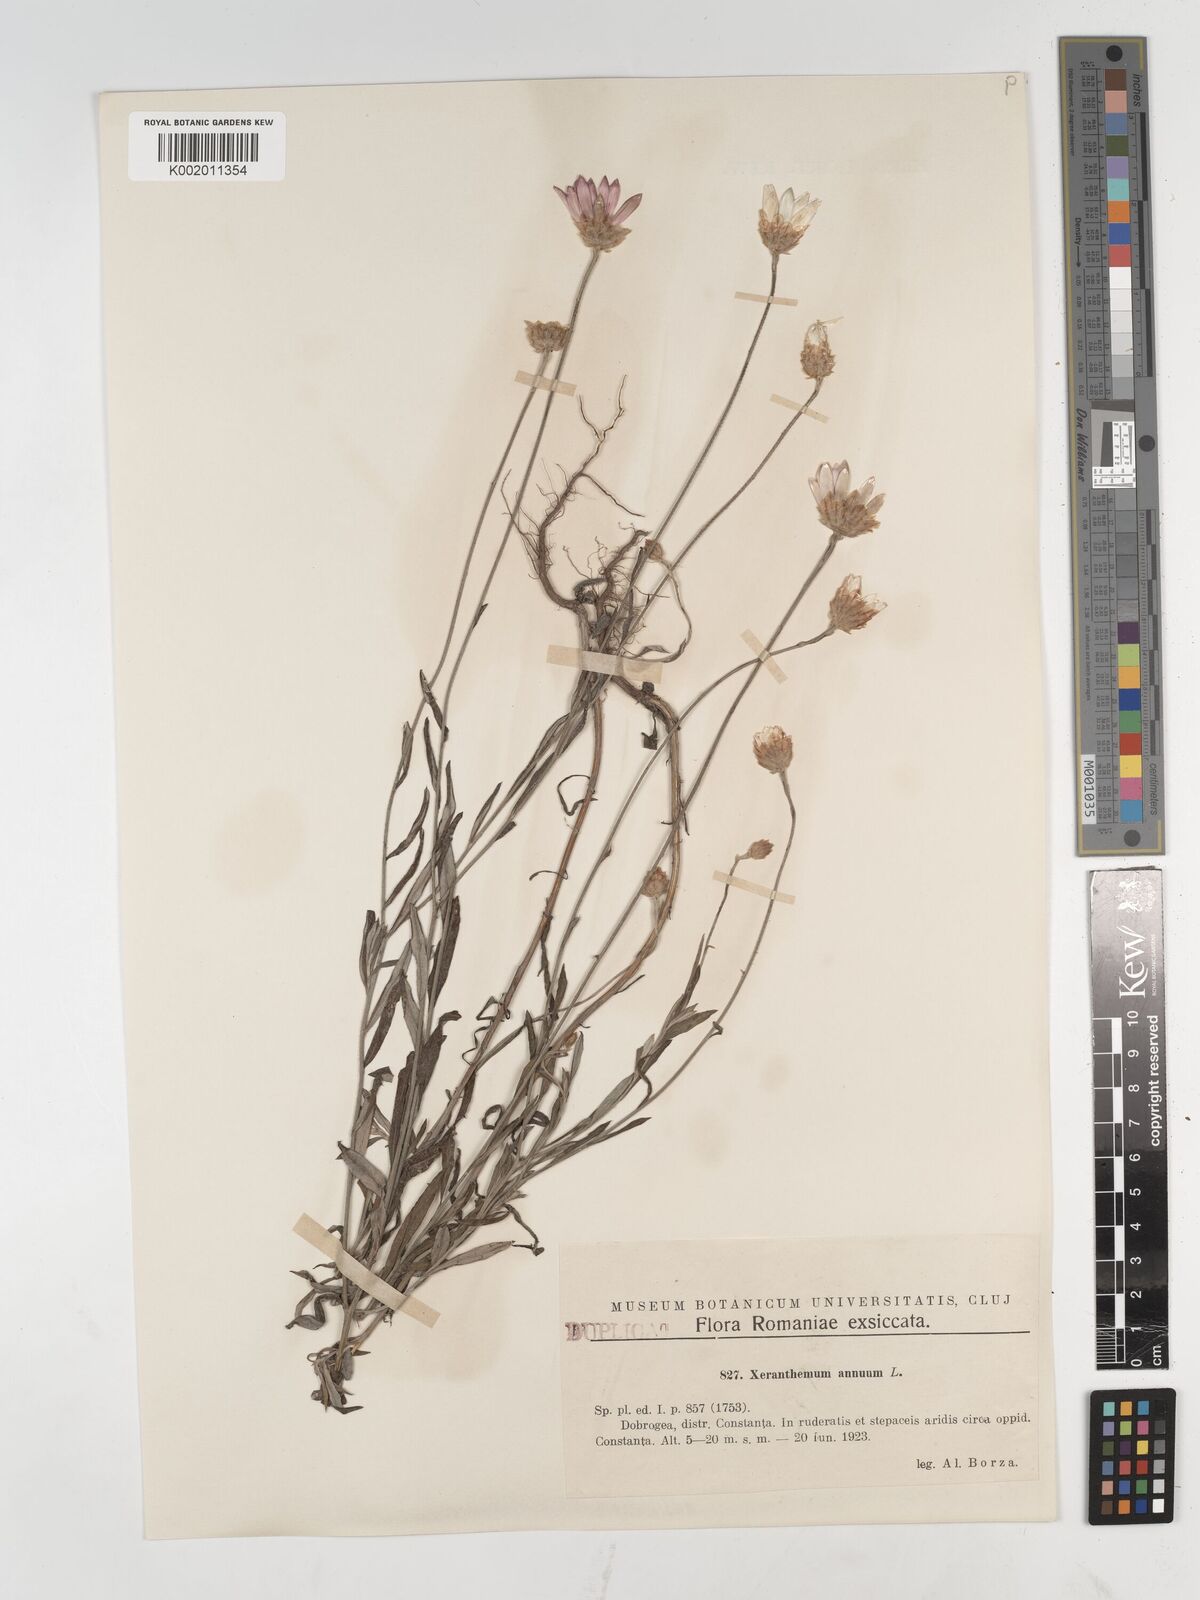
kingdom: Plantae
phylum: Tracheophyta
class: Magnoliopsida
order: Asterales
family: Asteraceae
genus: Xeranthemum
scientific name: Xeranthemum annuum
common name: Immortelle
